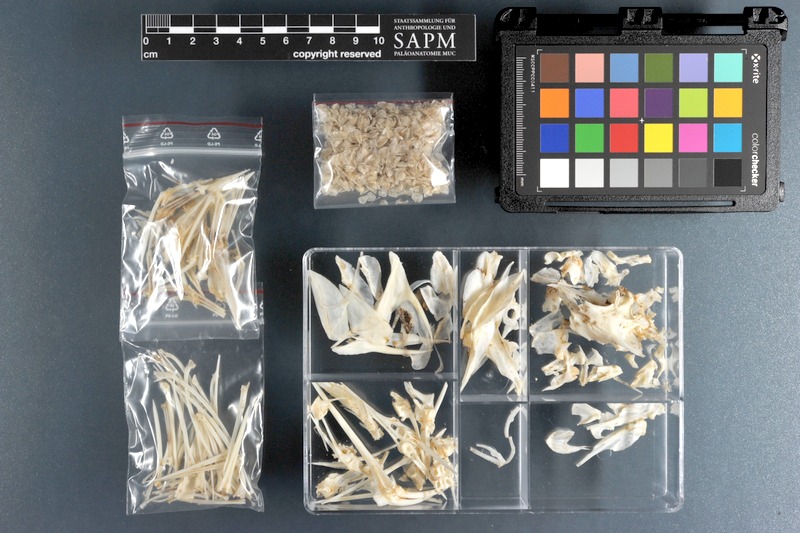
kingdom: Animalia
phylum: Chordata
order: Perciformes
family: Pomacanthidae
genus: Pomacanthus
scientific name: Pomacanthus imperator
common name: Emperor angelfish
